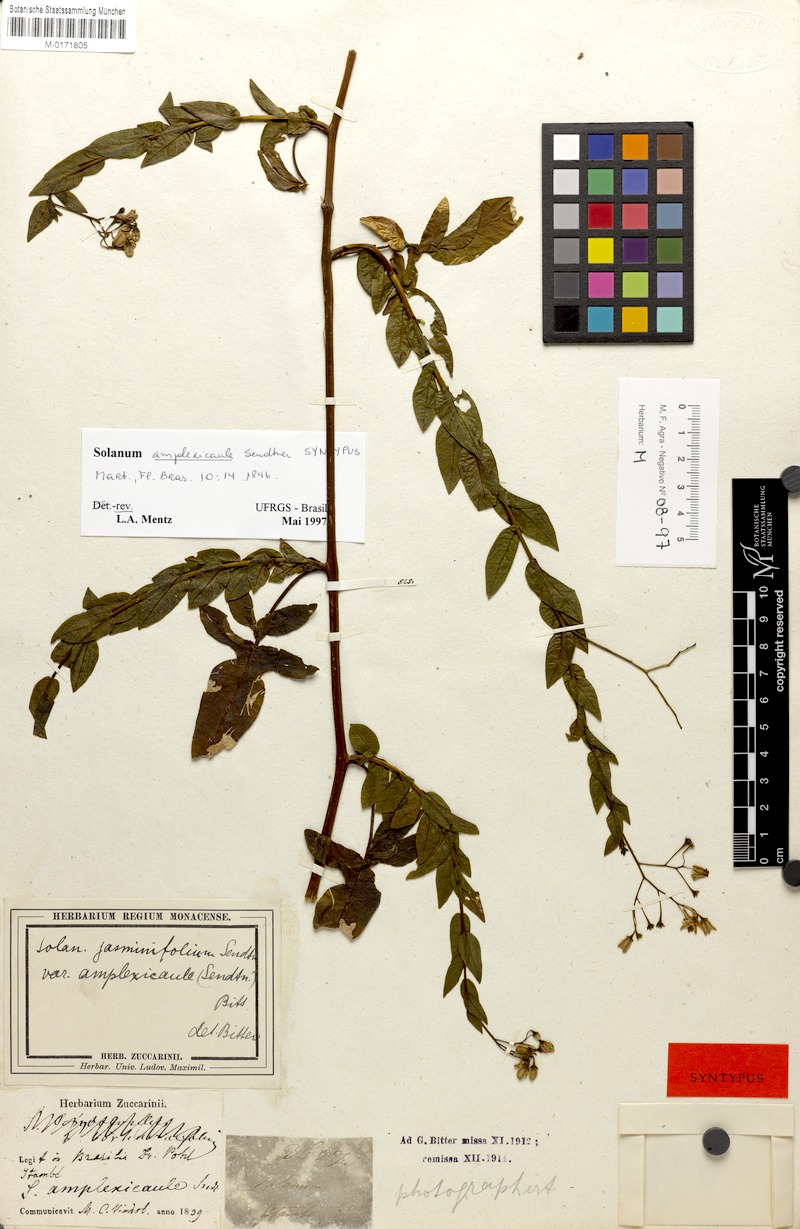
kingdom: Plantae
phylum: Tracheophyta
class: Magnoliopsida
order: Solanales
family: Solanaceae
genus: Solanum
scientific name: Solanum viscosissimum
